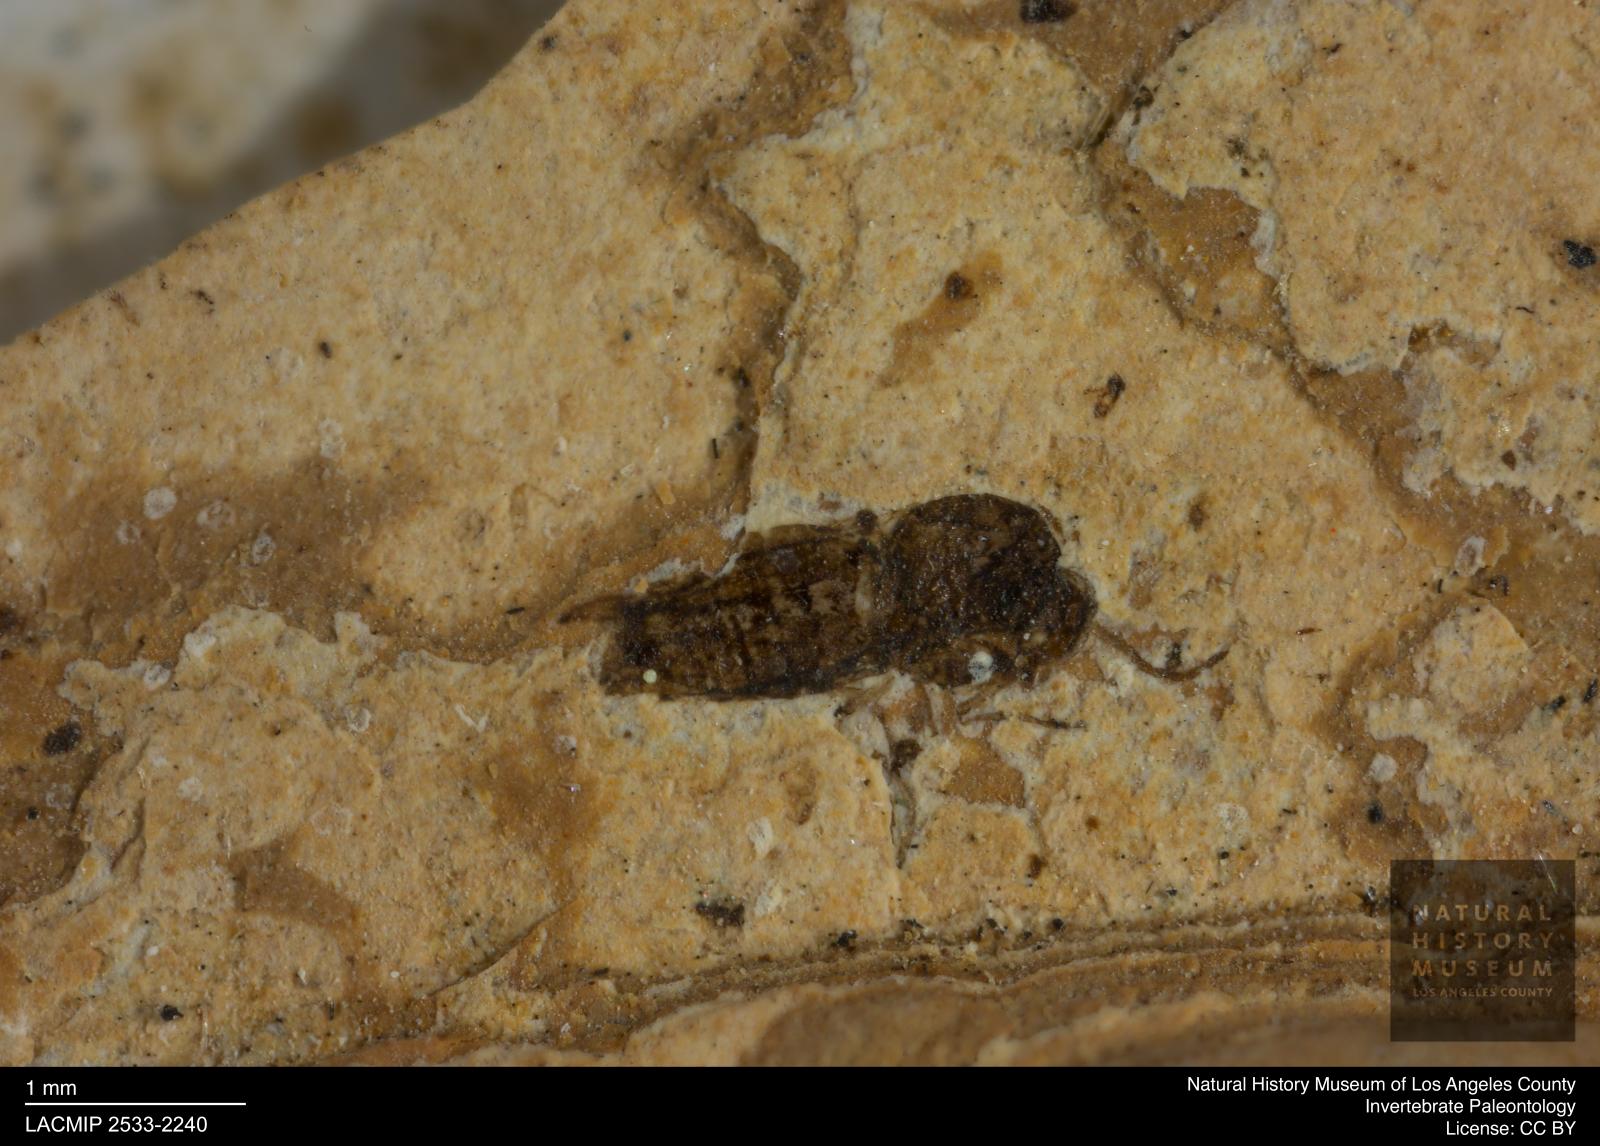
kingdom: Animalia
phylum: Arthropoda
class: Insecta
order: Diptera
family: Ceratopogonidae
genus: Culicoides
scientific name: Culicoides
